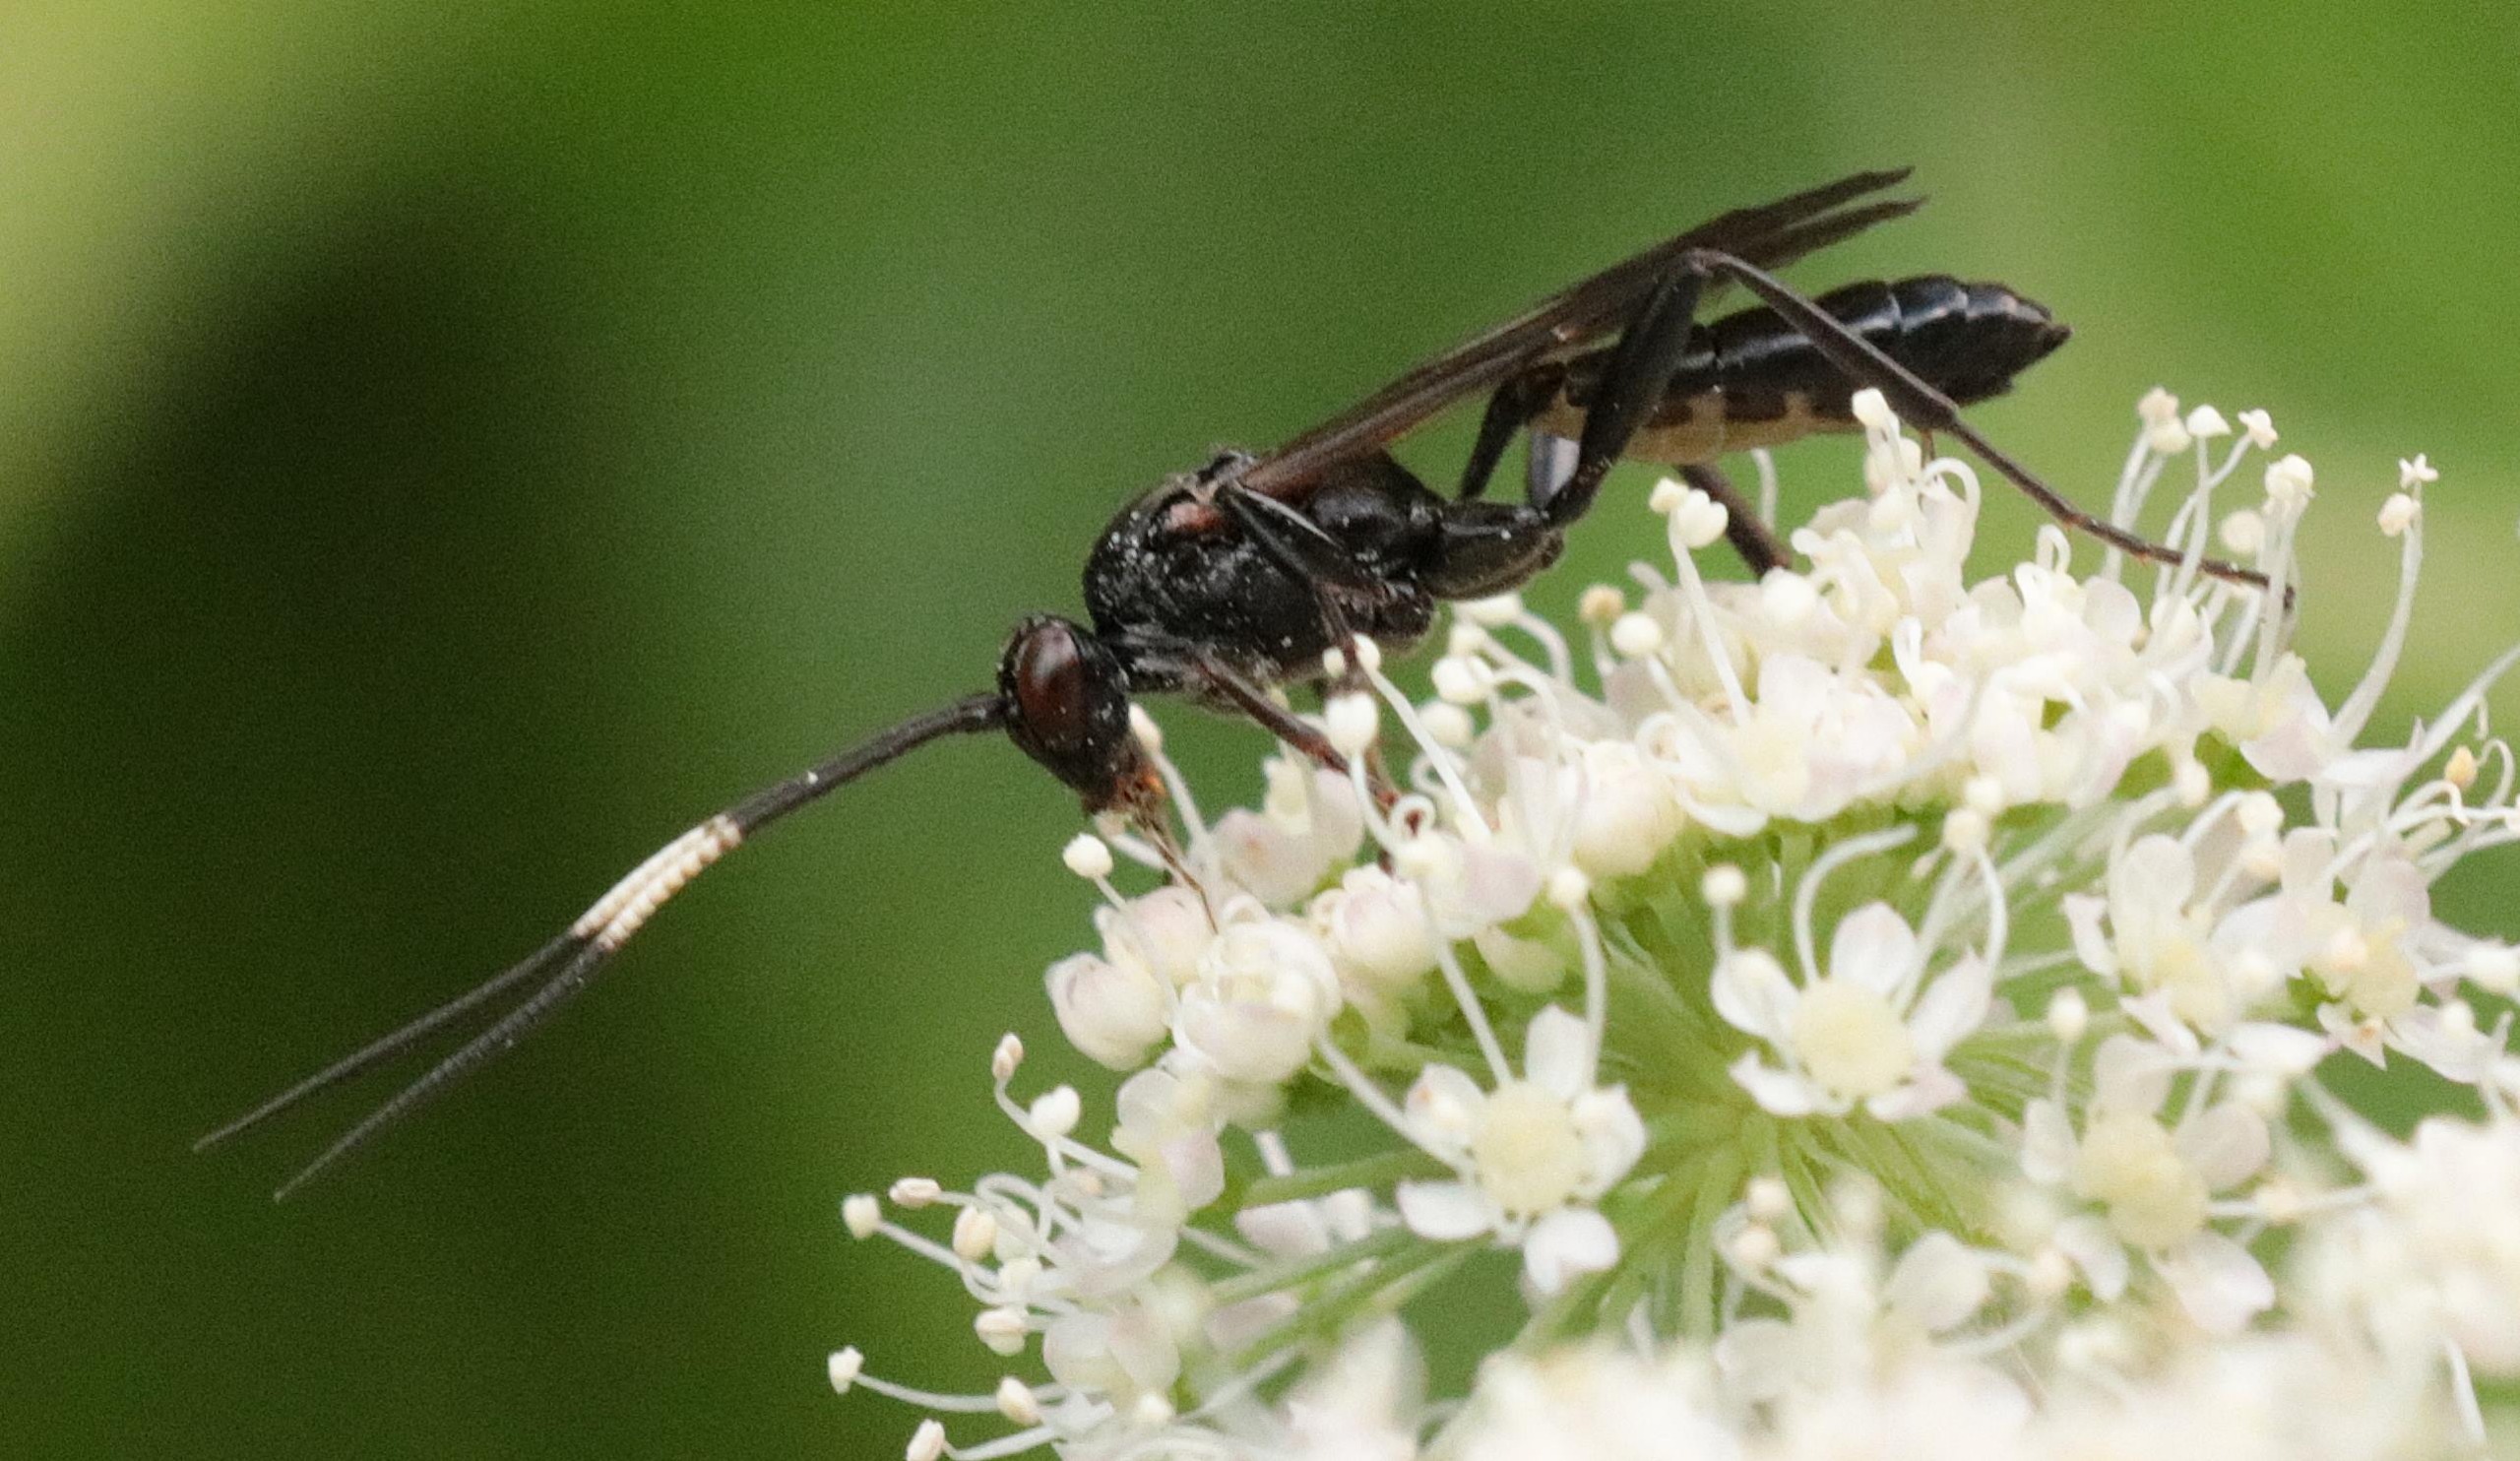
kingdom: Animalia
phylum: Arthropoda
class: Insecta
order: Hymenoptera
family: Ichneumonidae
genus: Hepiopelmus
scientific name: Hepiopelmus melanogaster
